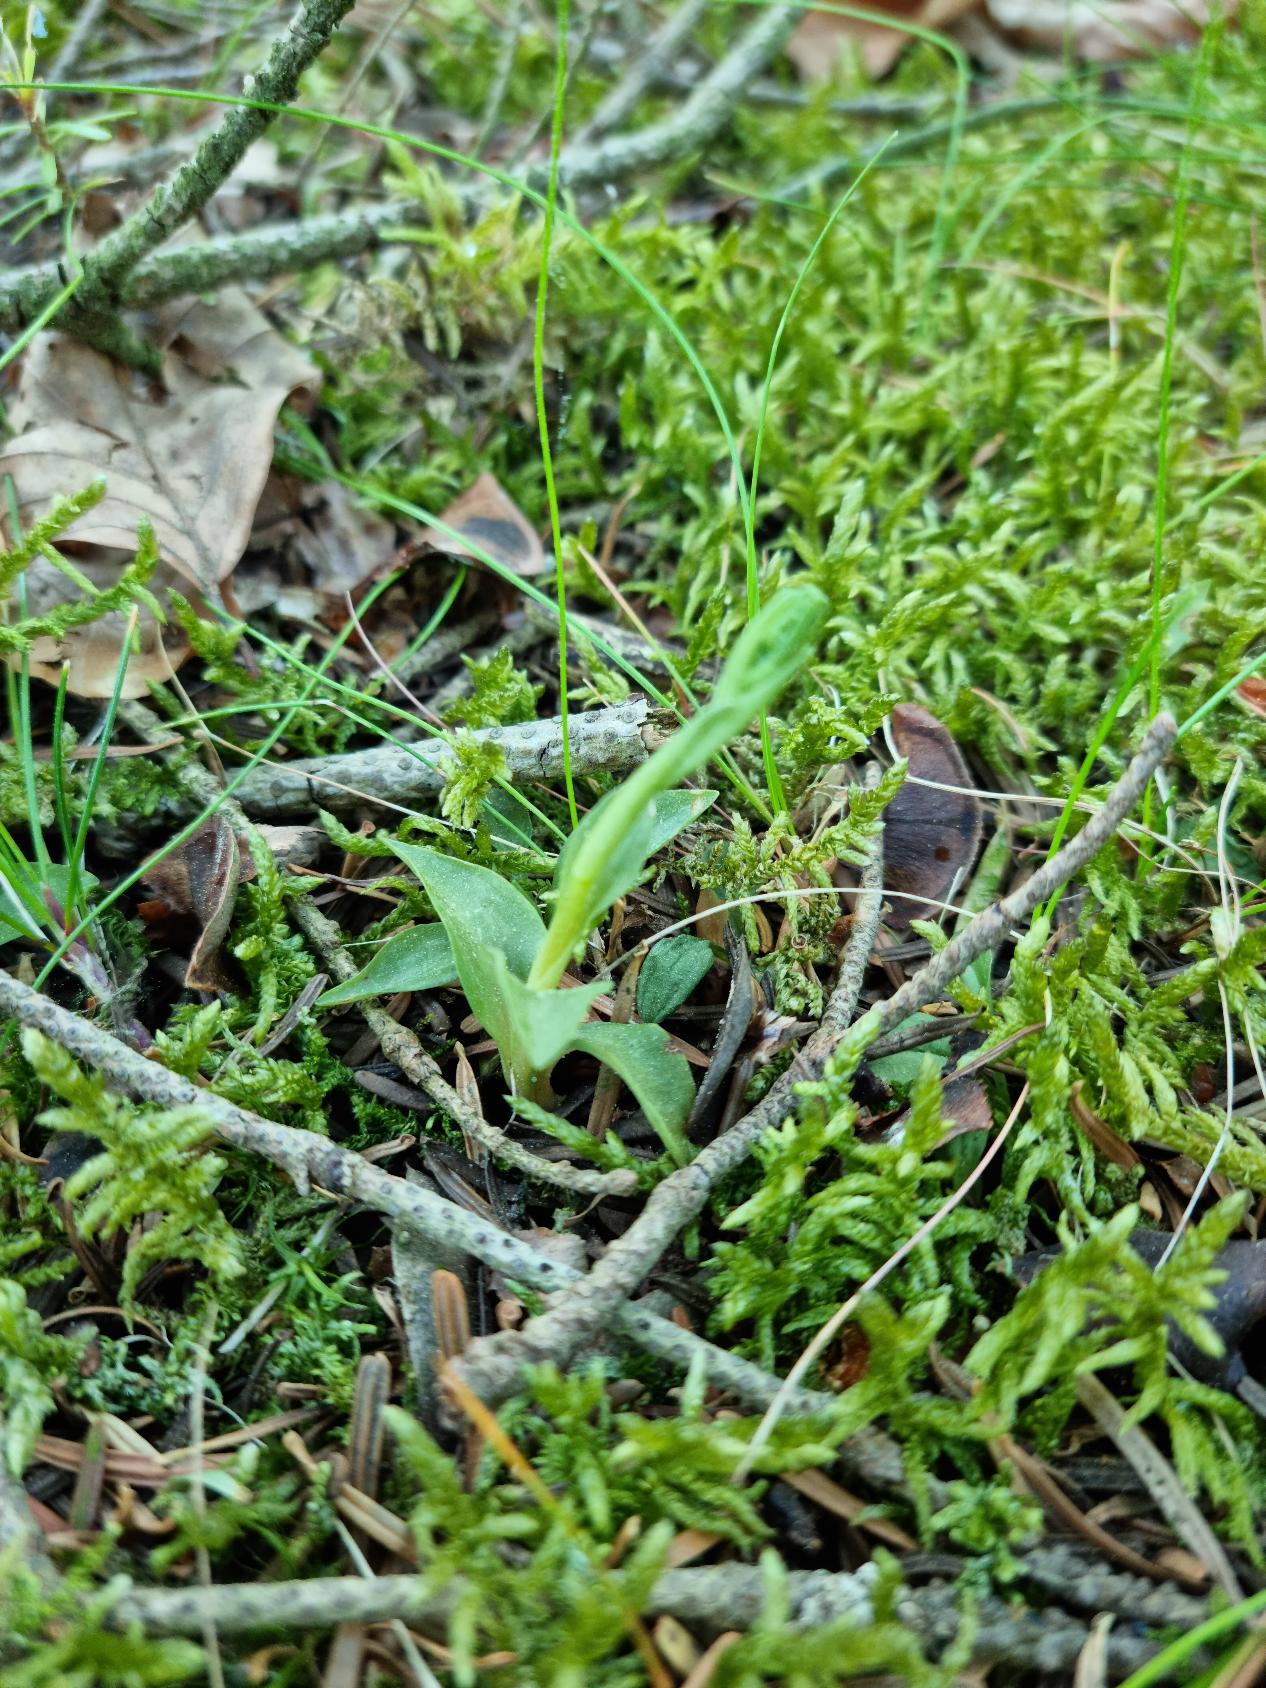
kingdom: Plantae
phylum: Tracheophyta
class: Liliopsida
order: Asparagales
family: Orchidaceae
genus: Goodyera
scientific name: Goodyera repens
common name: Knærod
